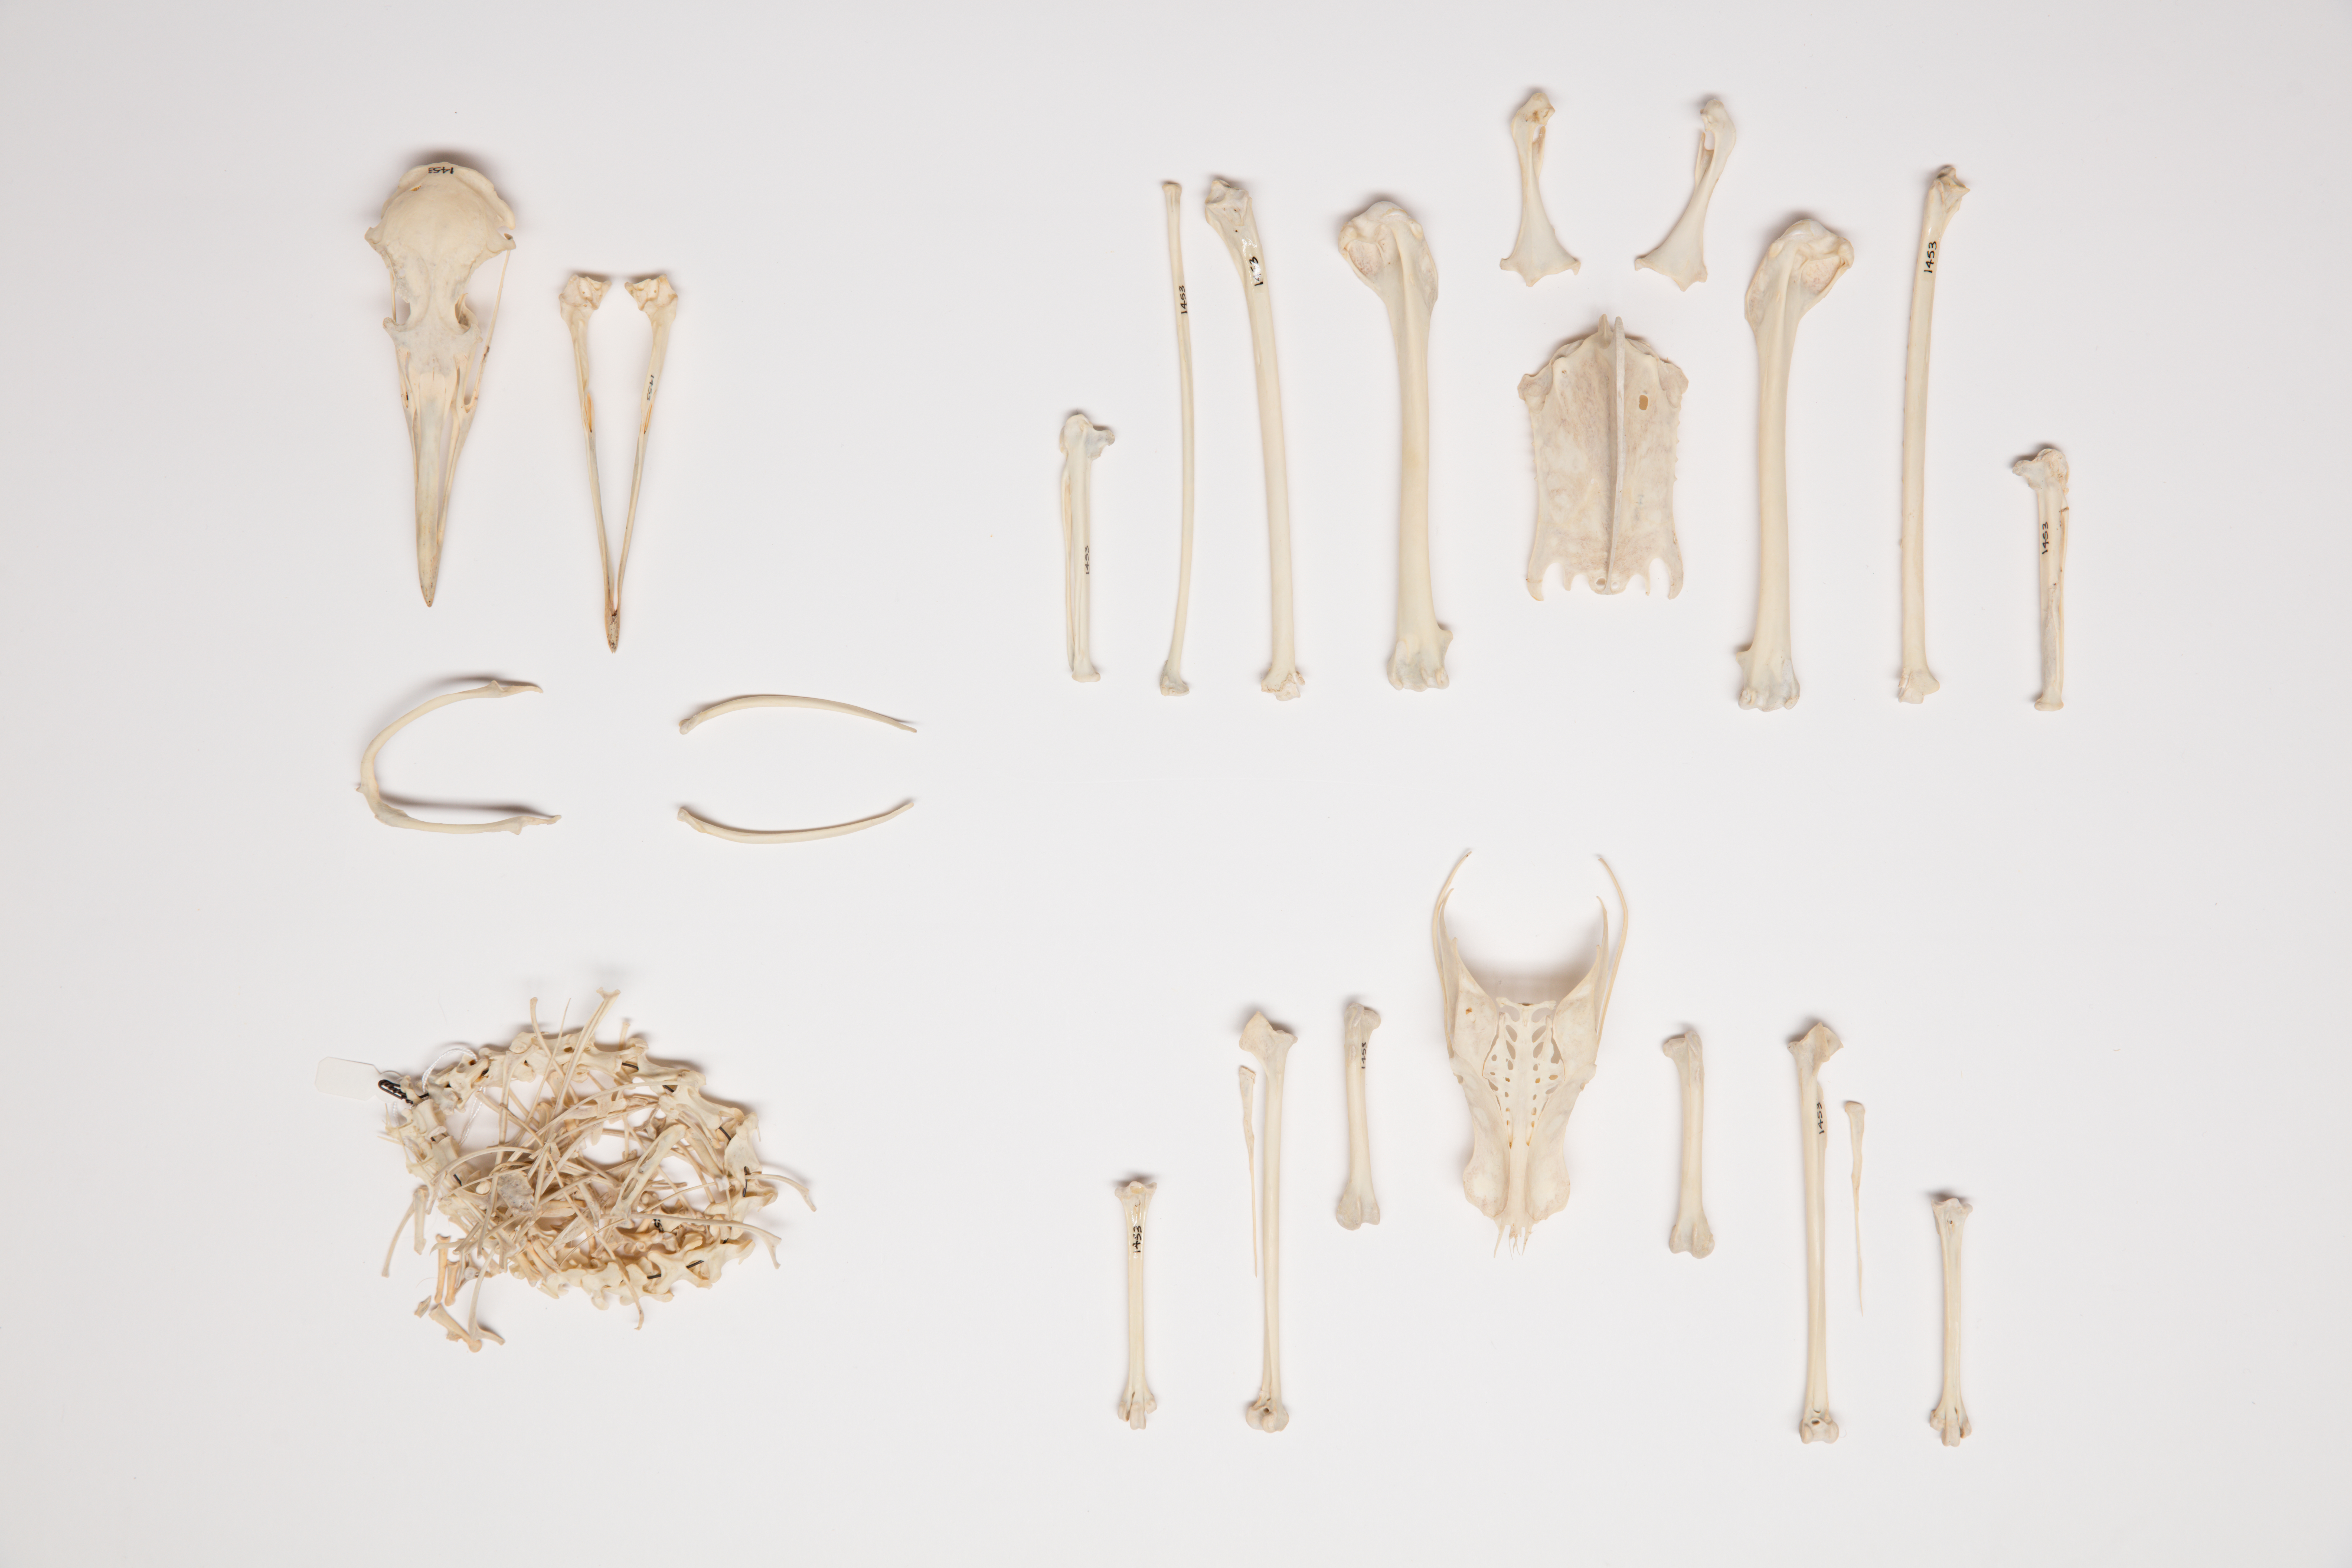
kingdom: Animalia
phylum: Chordata
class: Aves
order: Charadriiformes
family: Laridae
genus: Larus
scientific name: Larus dominicanus
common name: Kelp gull
